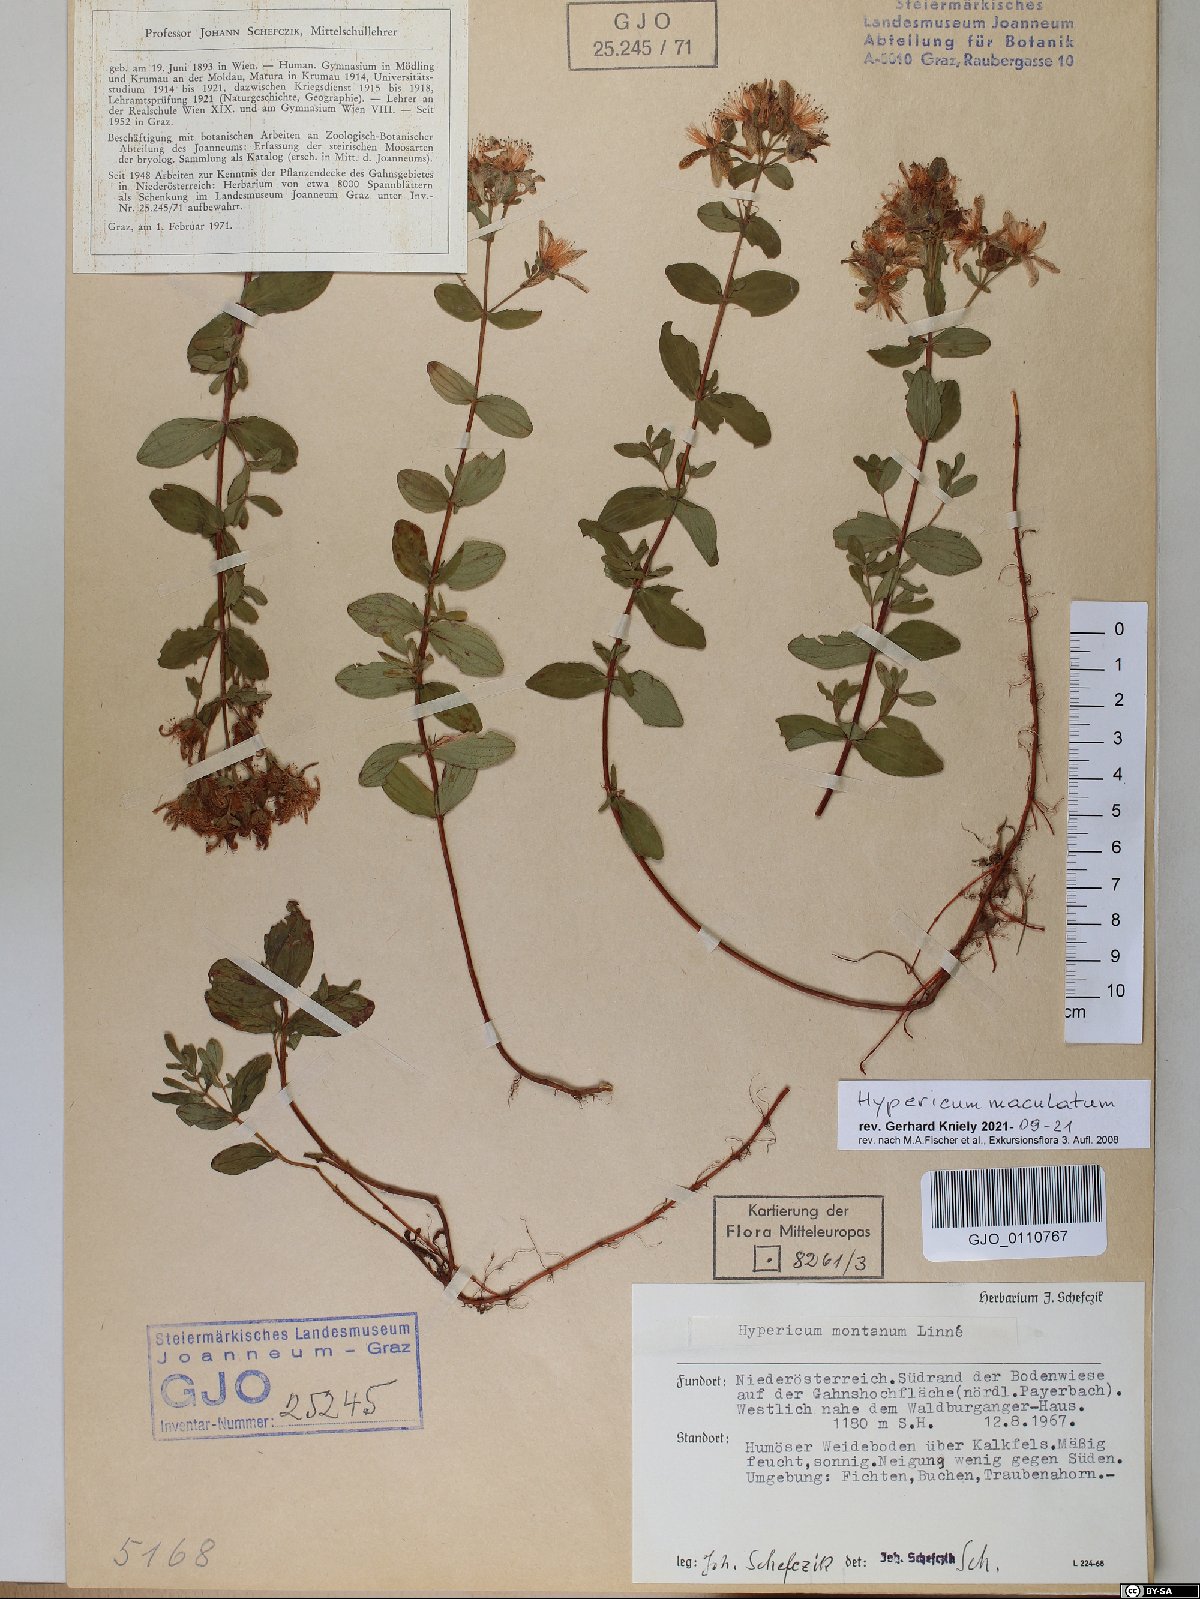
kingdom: Plantae
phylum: Tracheophyta
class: Magnoliopsida
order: Malpighiales
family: Hypericaceae
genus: Hypericum
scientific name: Hypericum maculatum
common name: Imperforate st. john's-wort
